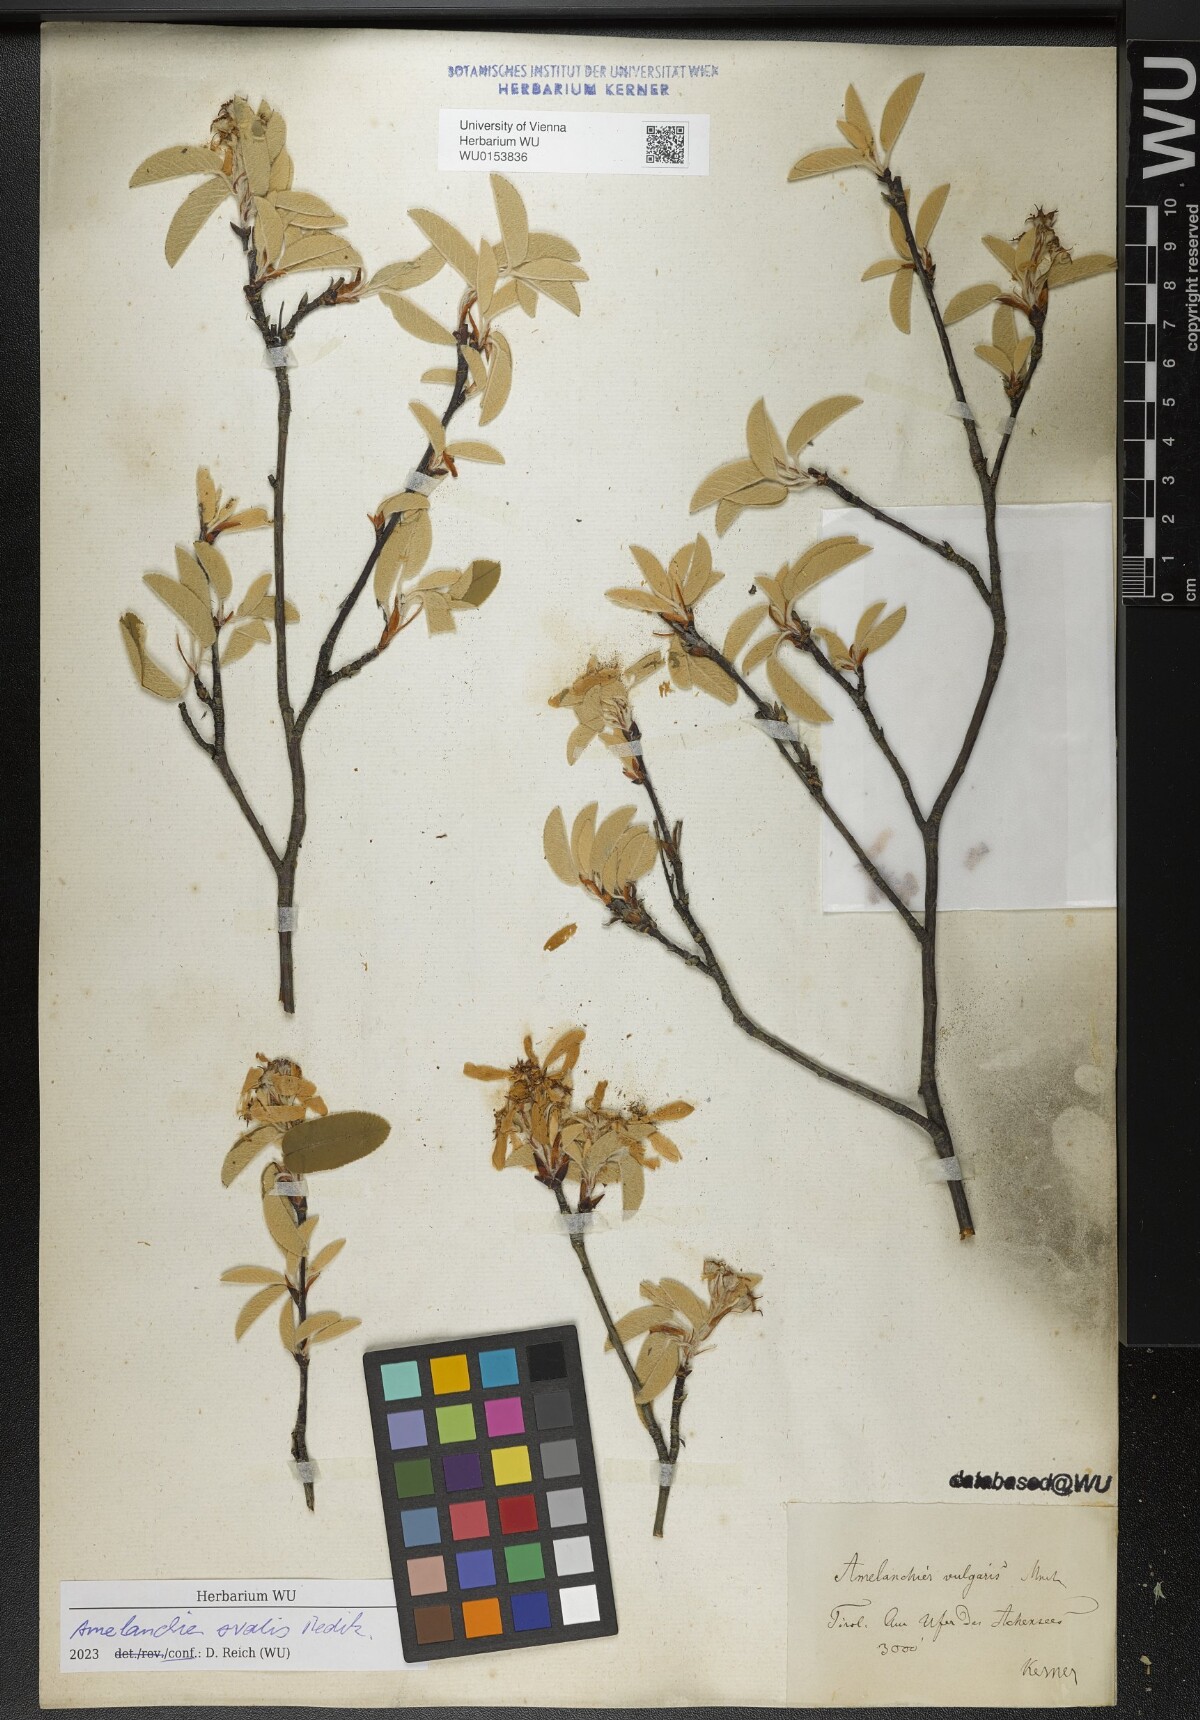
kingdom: Plantae
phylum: Tracheophyta
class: Magnoliopsida
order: Rosales
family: Rosaceae
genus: Amelanchier
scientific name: Amelanchier ovalis
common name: Serviceberry
